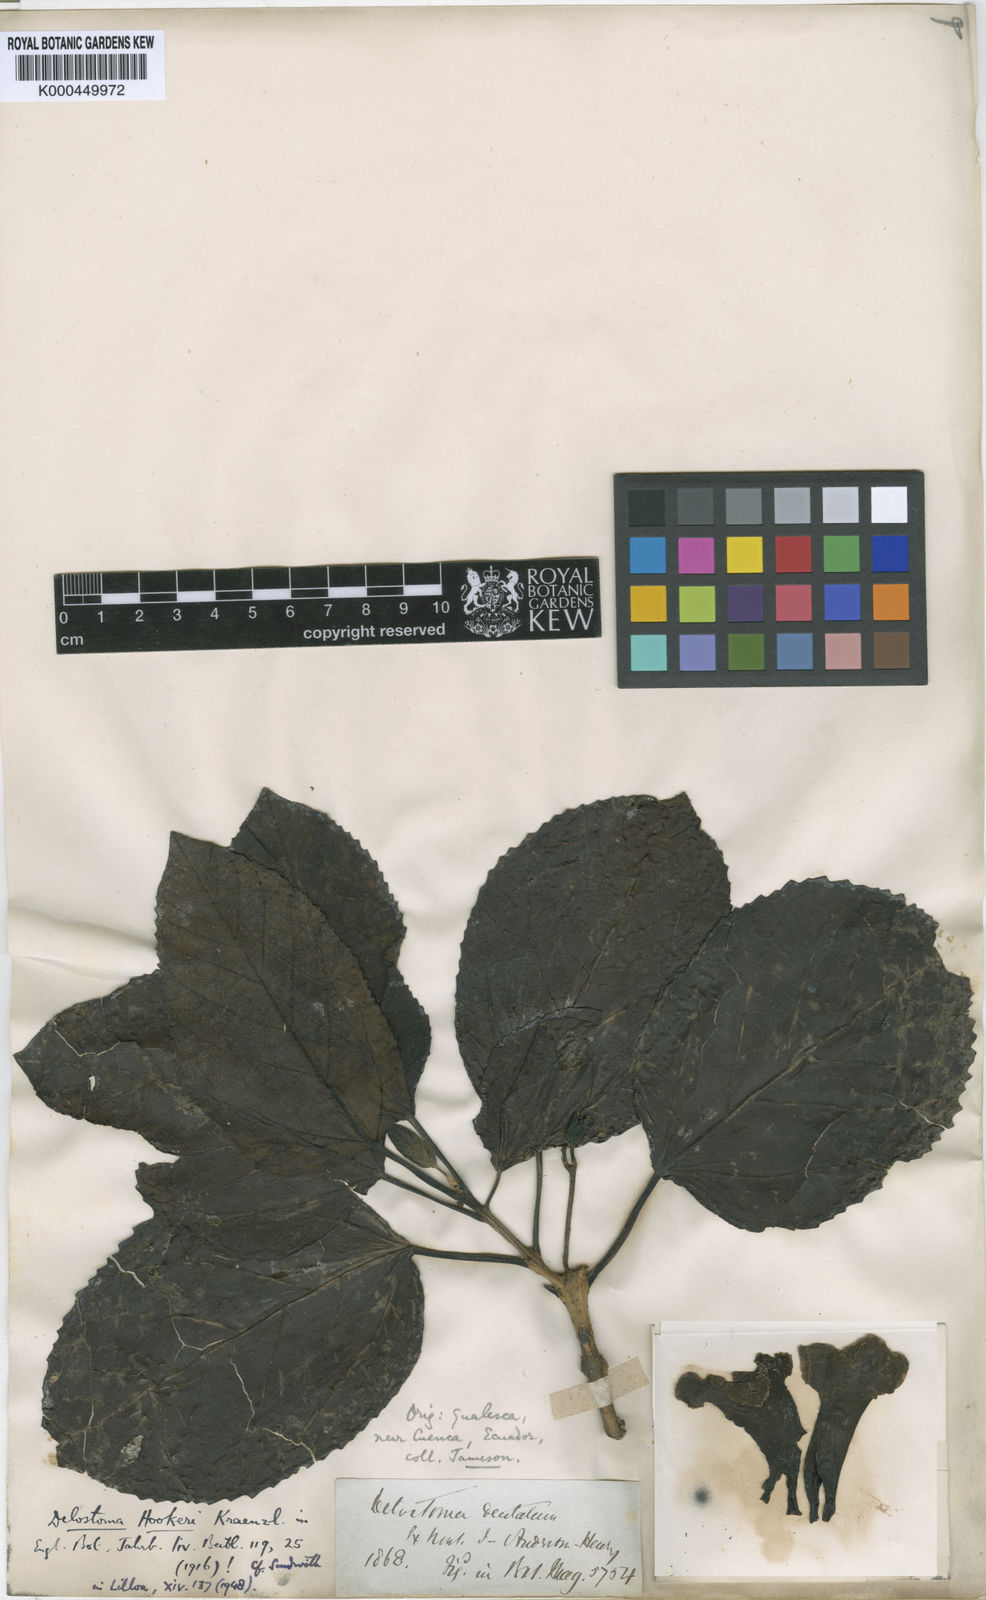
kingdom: Plantae
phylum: Tracheophyta
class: Magnoliopsida
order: Lamiales
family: Bignoniaceae
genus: Delostoma
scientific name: Delostoma integrifolium
